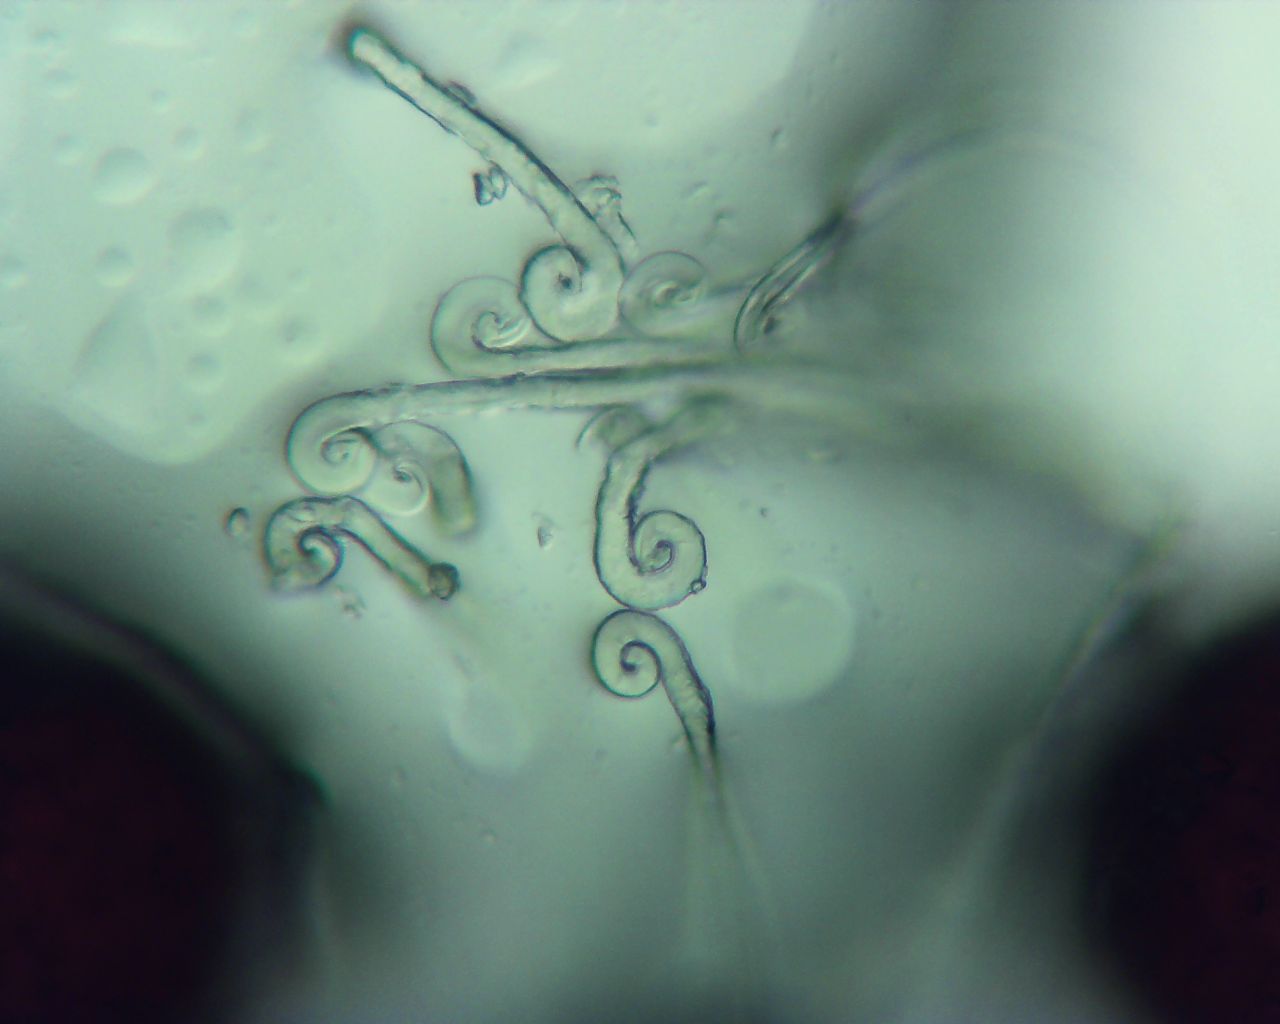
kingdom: Fungi
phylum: Ascomycota
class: Leotiomycetes
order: Helotiales
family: Erysiphaceae
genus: Erysiphe
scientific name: Erysiphe prunastri
